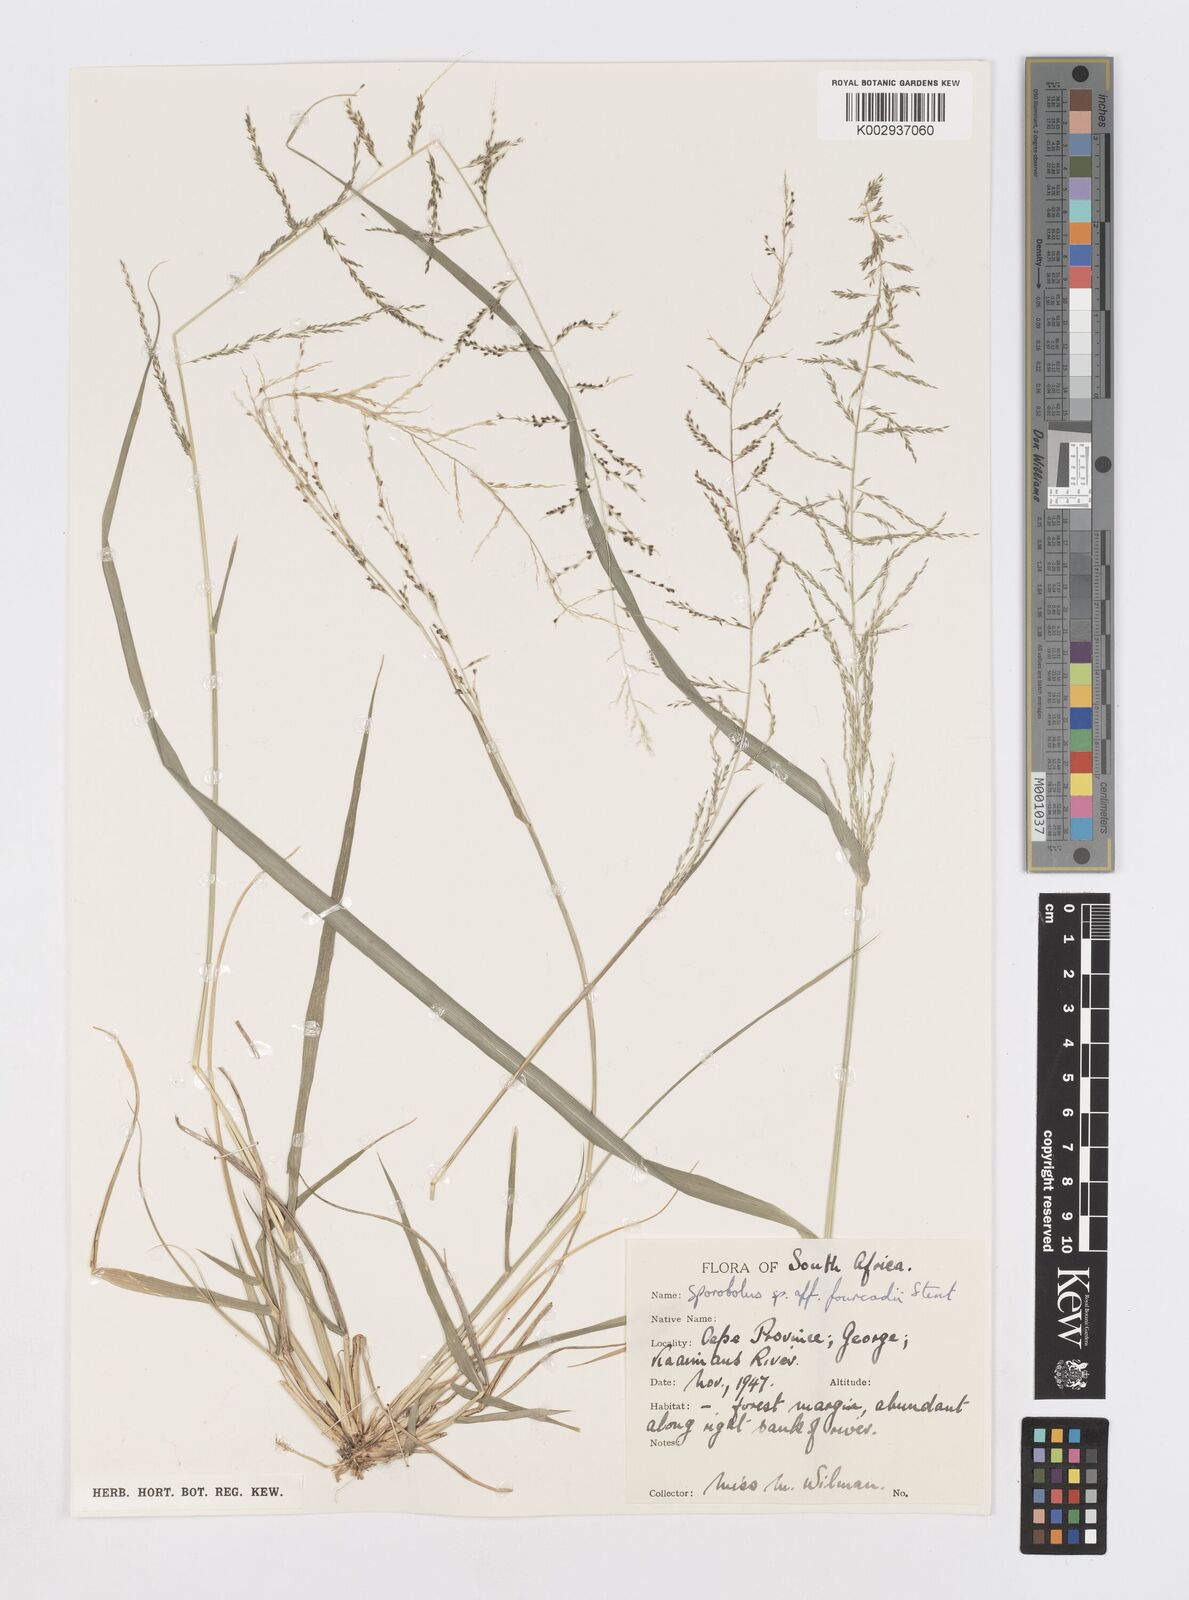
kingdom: Plantae
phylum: Tracheophyta
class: Liliopsida
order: Poales
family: Poaceae
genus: Sporobolus
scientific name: Sporobolus
